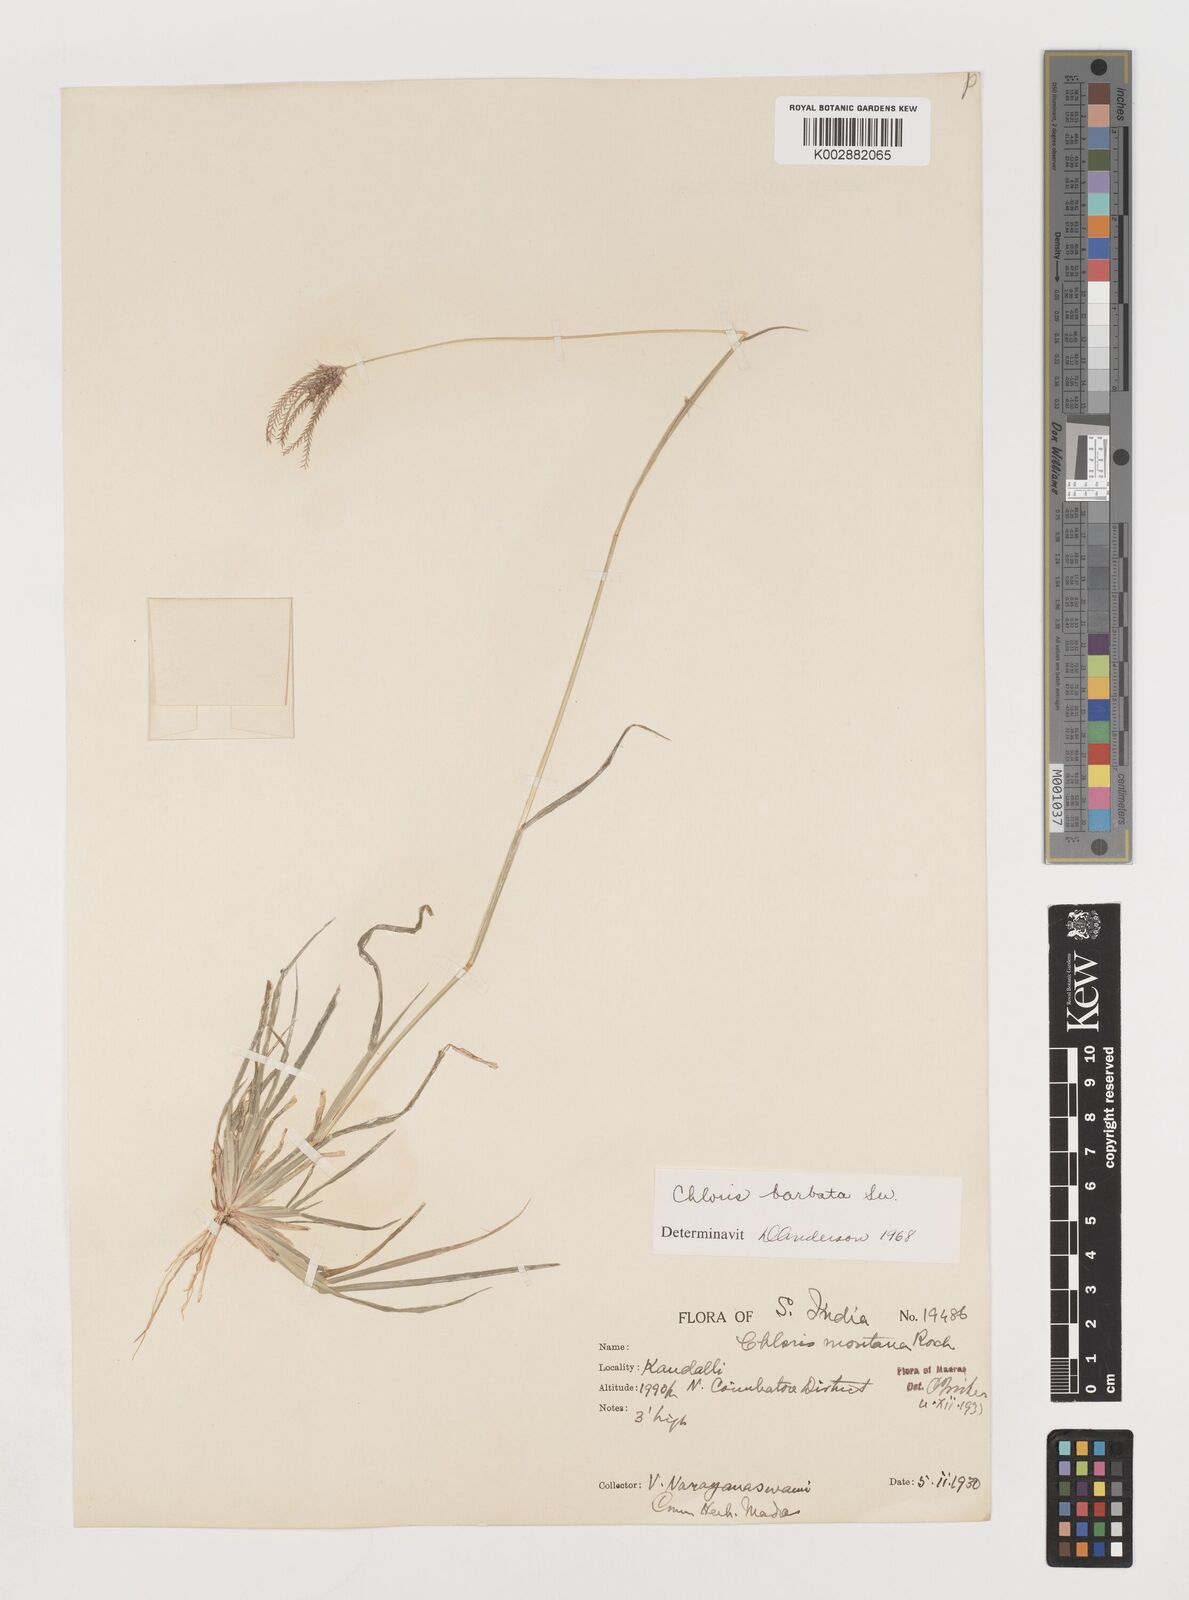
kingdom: Plantae
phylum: Tracheophyta
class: Liliopsida
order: Poales
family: Poaceae
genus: Chloris
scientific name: Chloris barbata
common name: Swollen fingergrass
